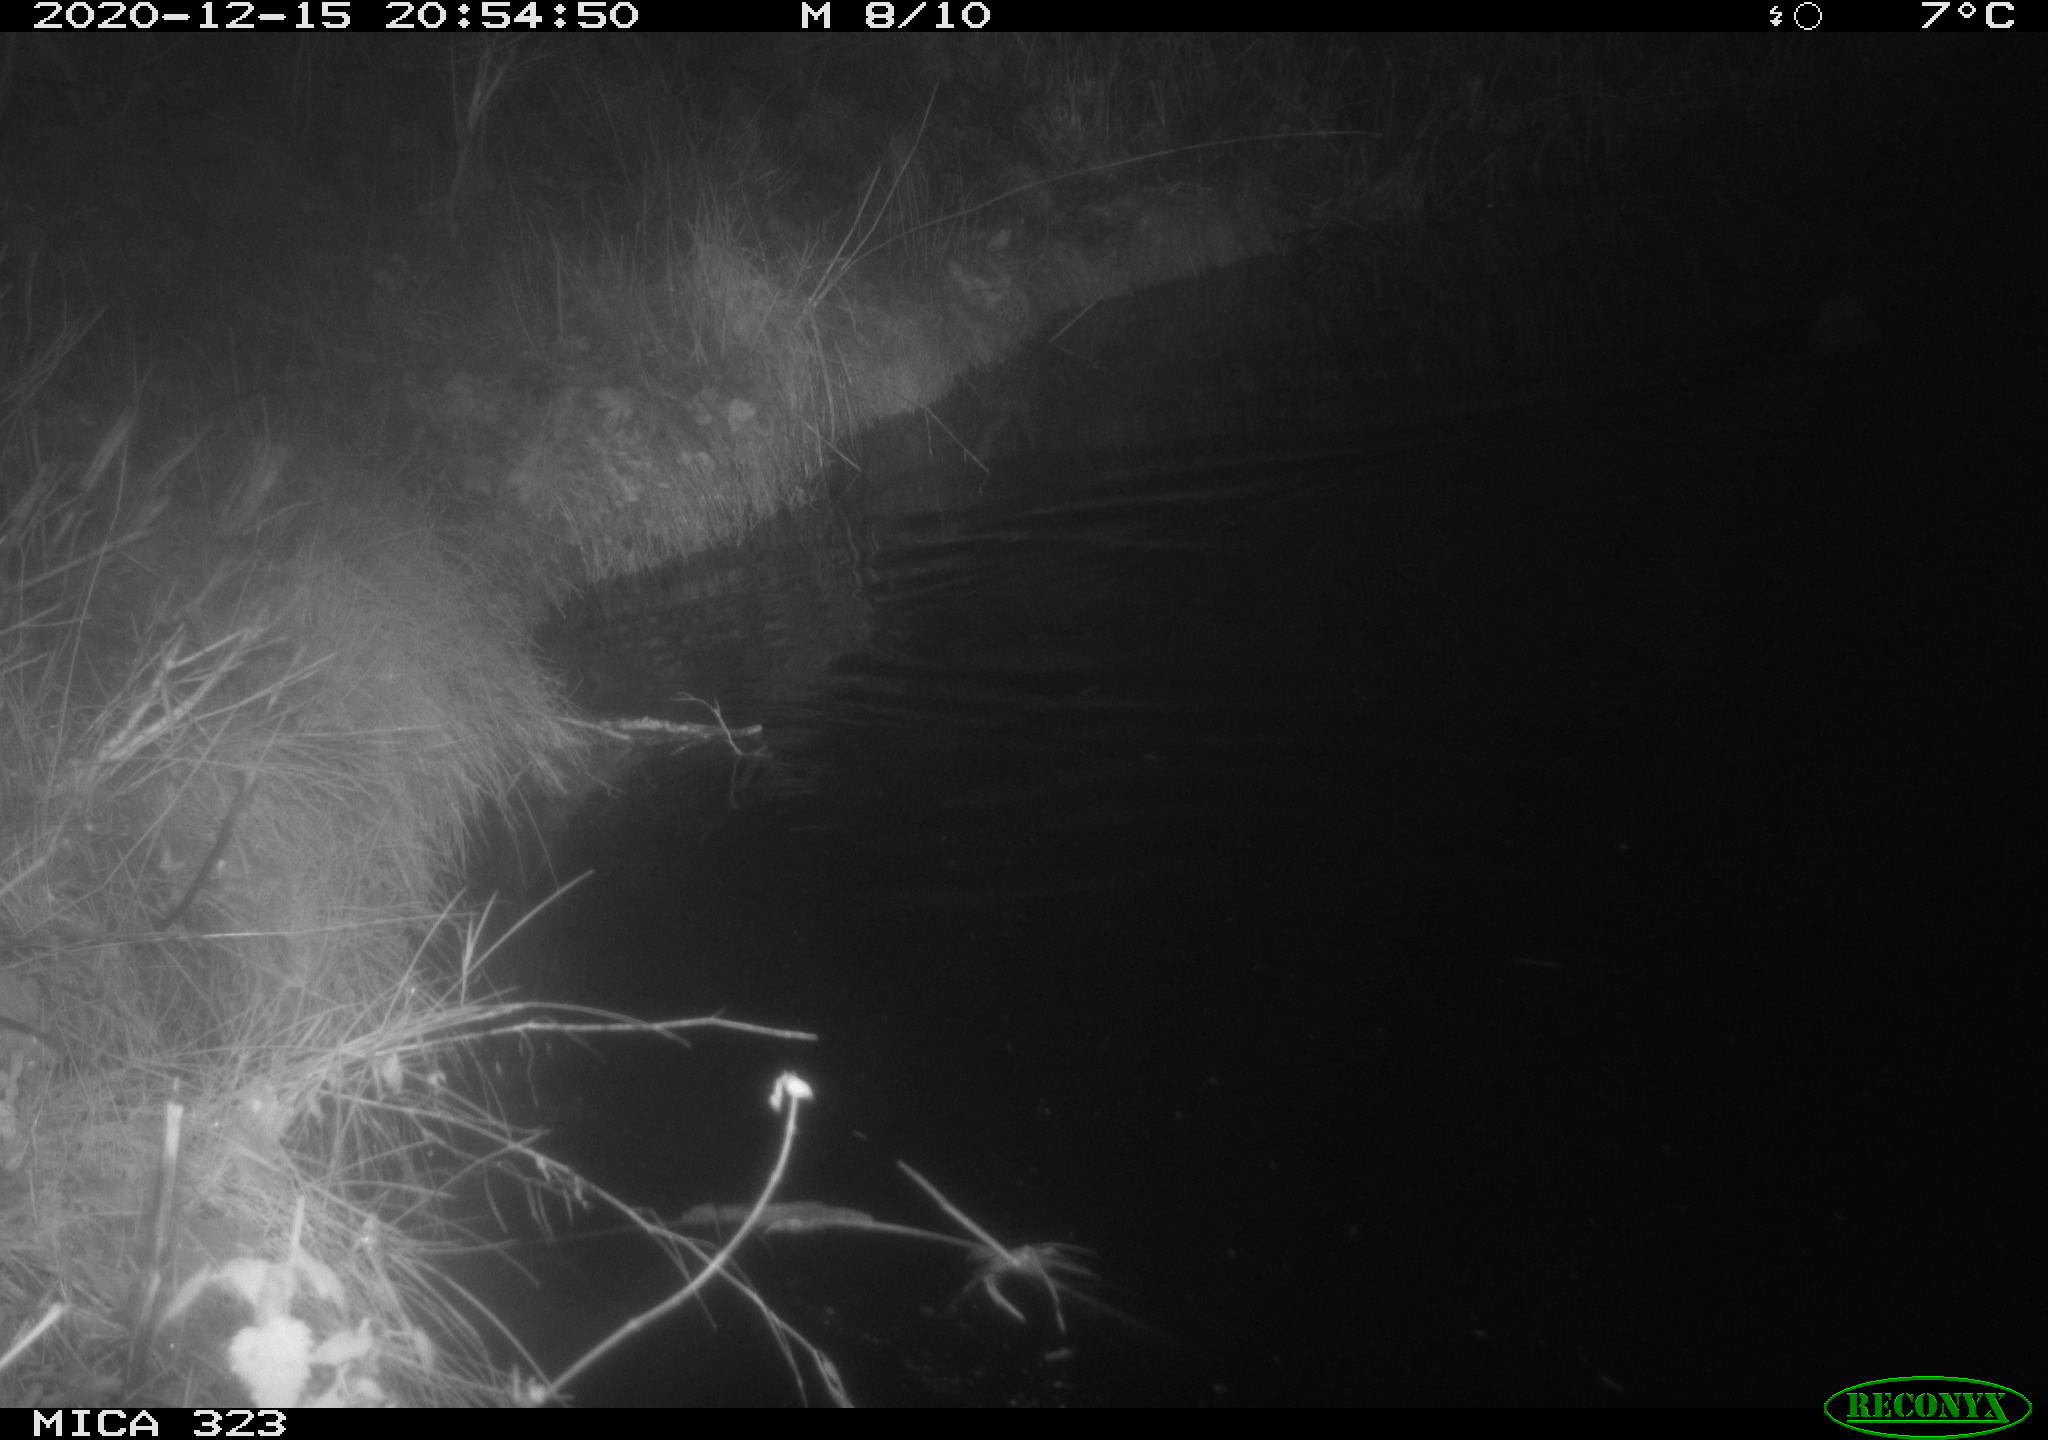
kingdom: Animalia
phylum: Chordata
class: Mammalia
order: Rodentia
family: Myocastoridae
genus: Myocastor
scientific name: Myocastor coypus
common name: Coypu
